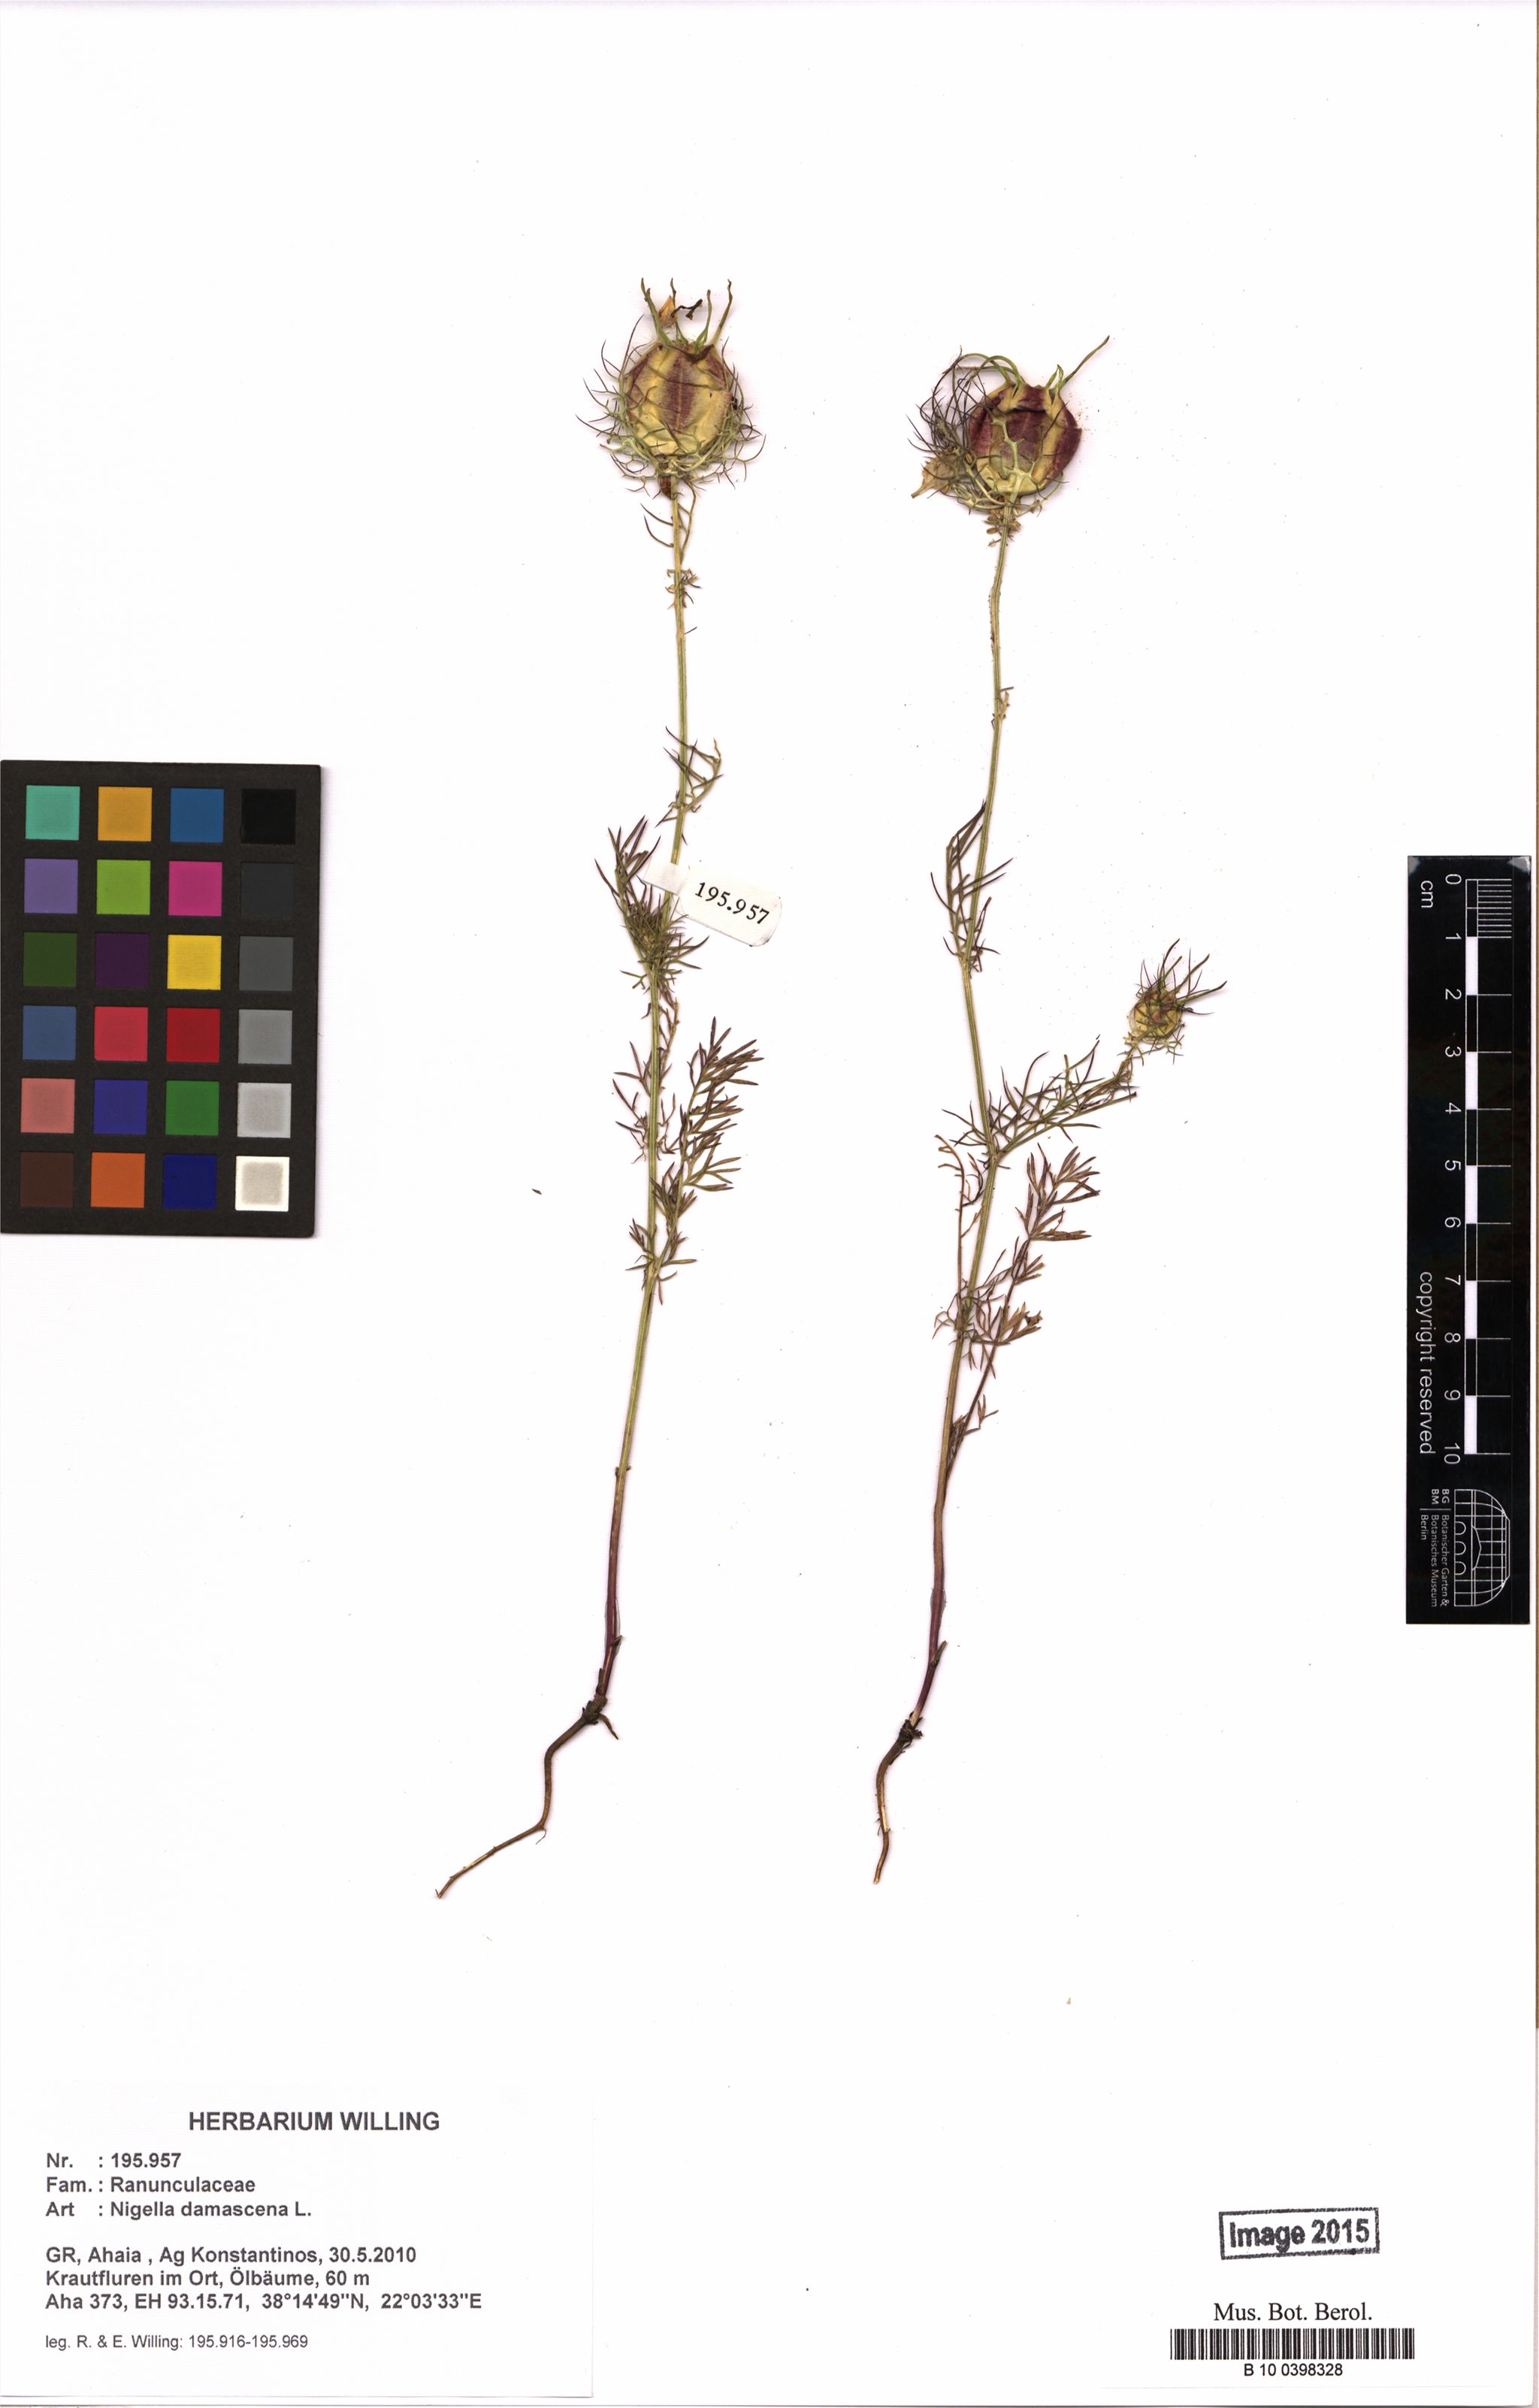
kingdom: Plantae
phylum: Tracheophyta
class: Magnoliopsida
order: Ranunculales
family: Ranunculaceae
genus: Nigella
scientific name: Nigella damascena
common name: Love-in-a-mist
